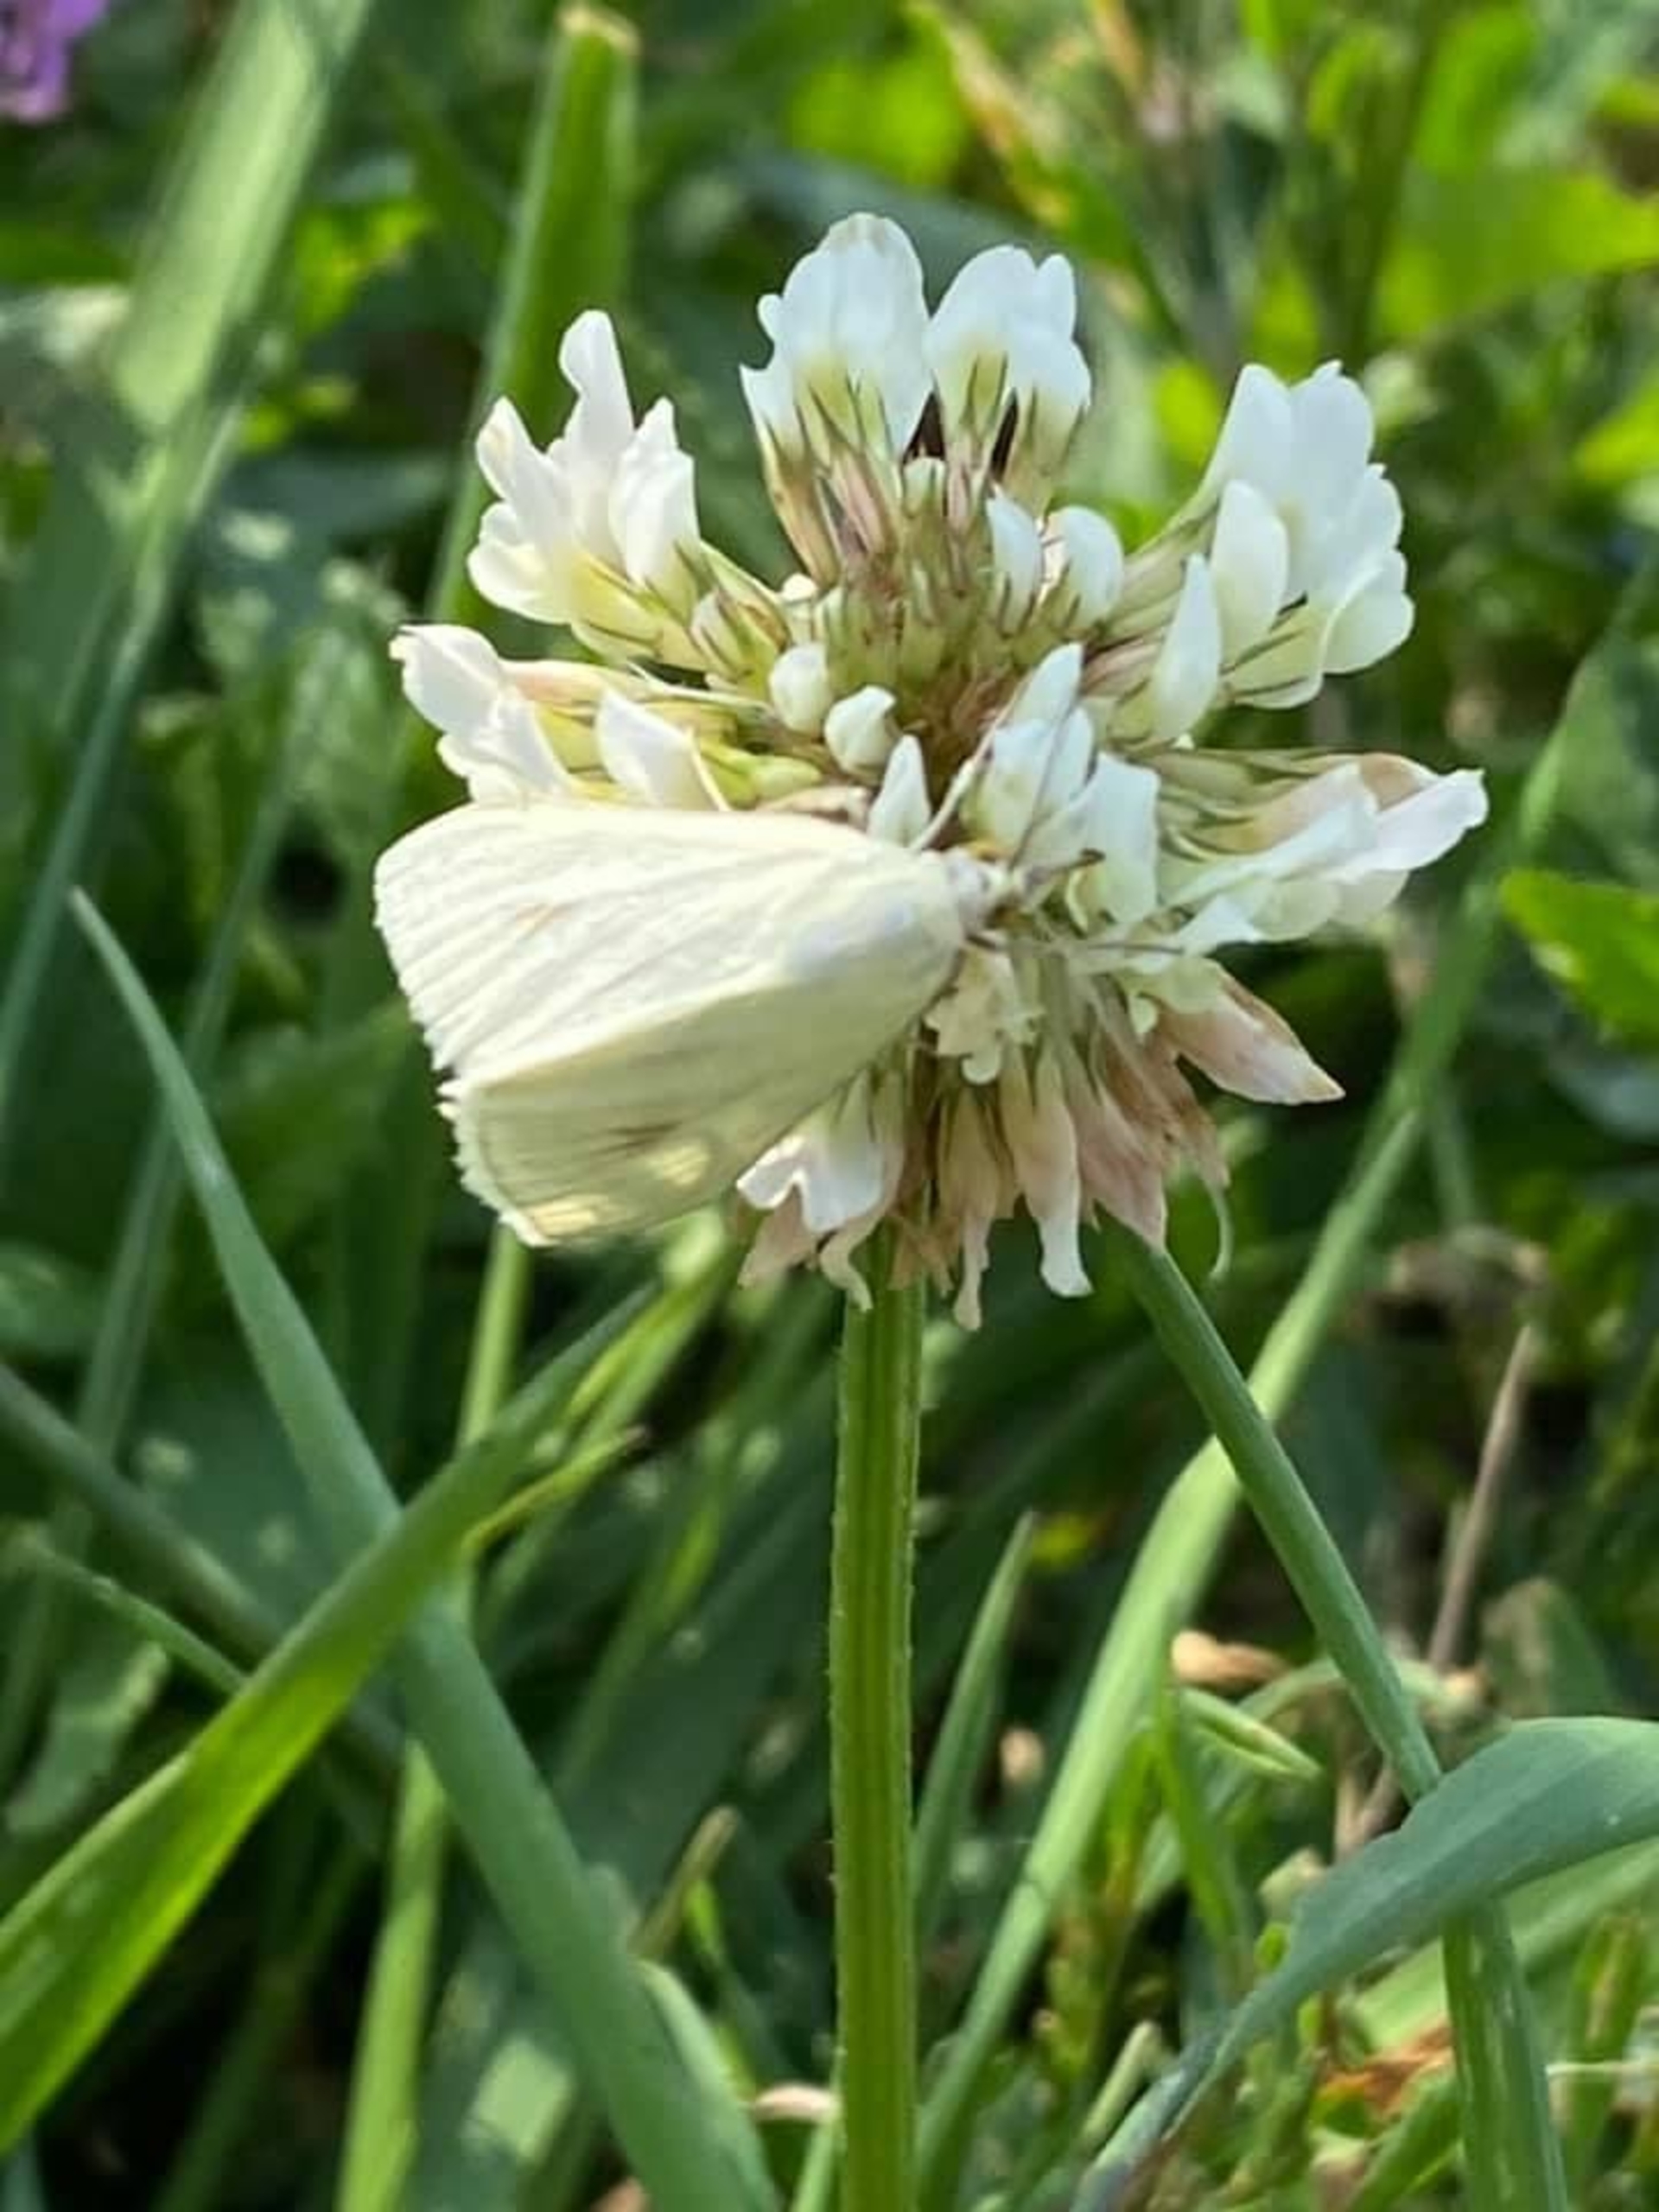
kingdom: Animalia
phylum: Arthropoda
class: Insecta
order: Lepidoptera
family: Crambidae
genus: Sitochroa
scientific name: Sitochroa palealis
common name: Gulerodshalvmøl
